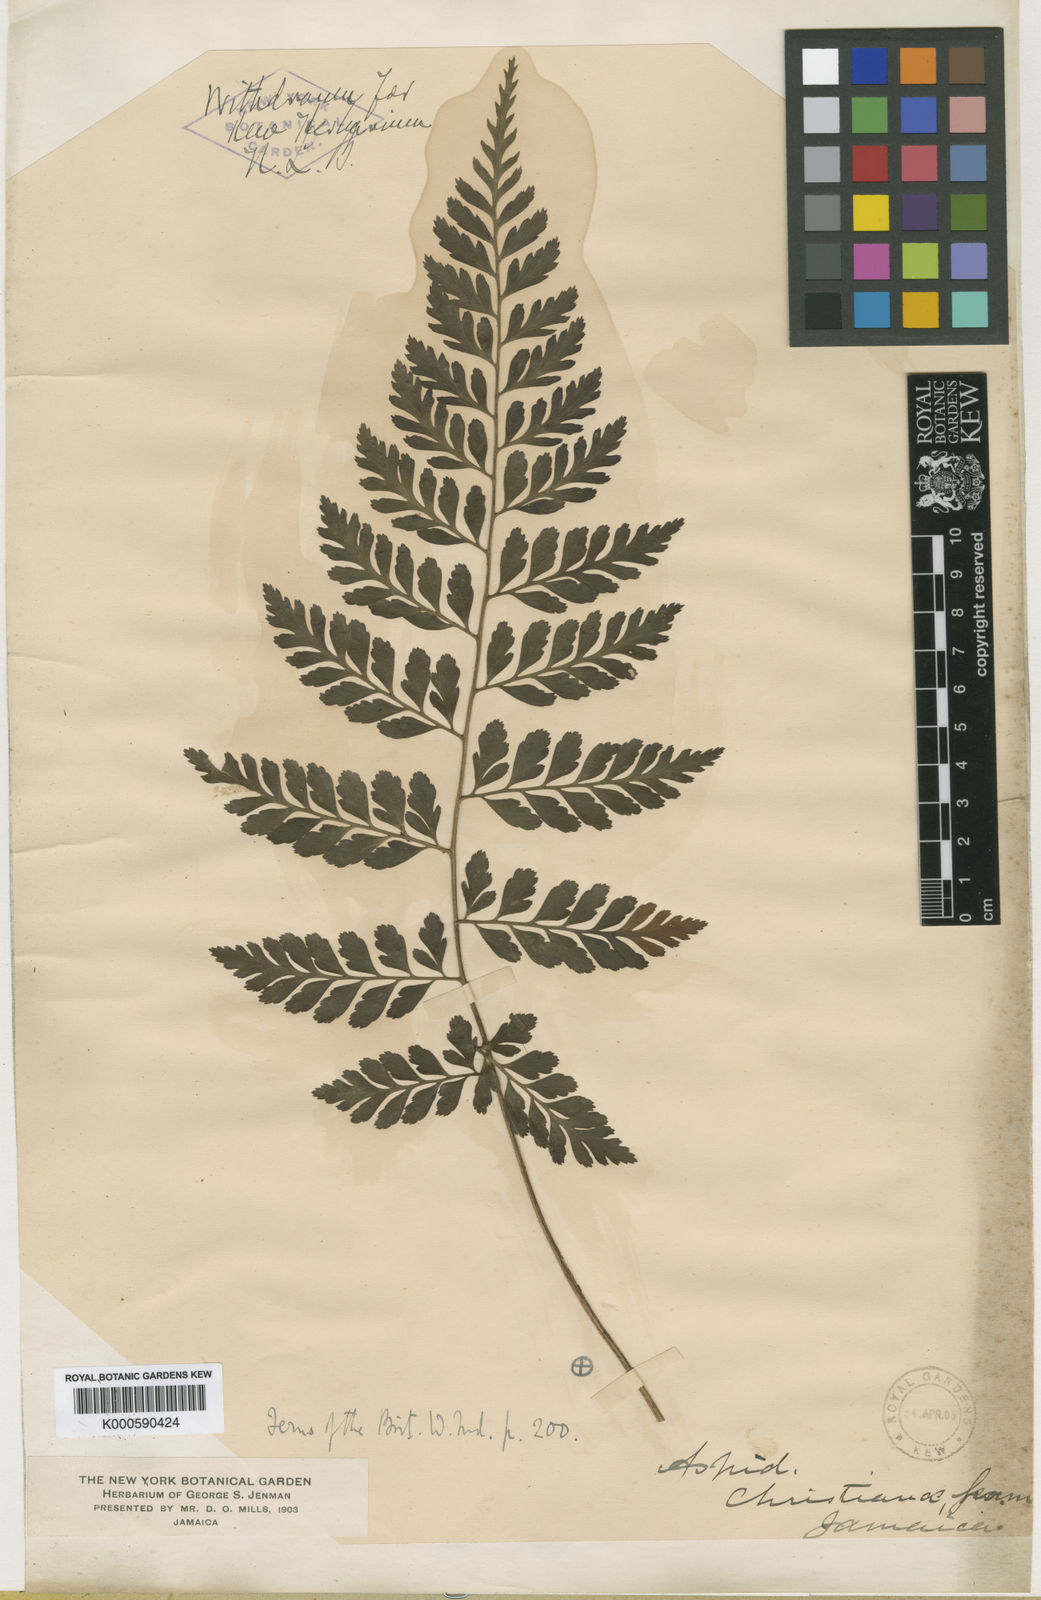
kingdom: Plantae
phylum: Tracheophyta
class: Polypodiopsida
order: Polypodiales
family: Dryopteridaceae
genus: Polystichum
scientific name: Polystichum christianae
